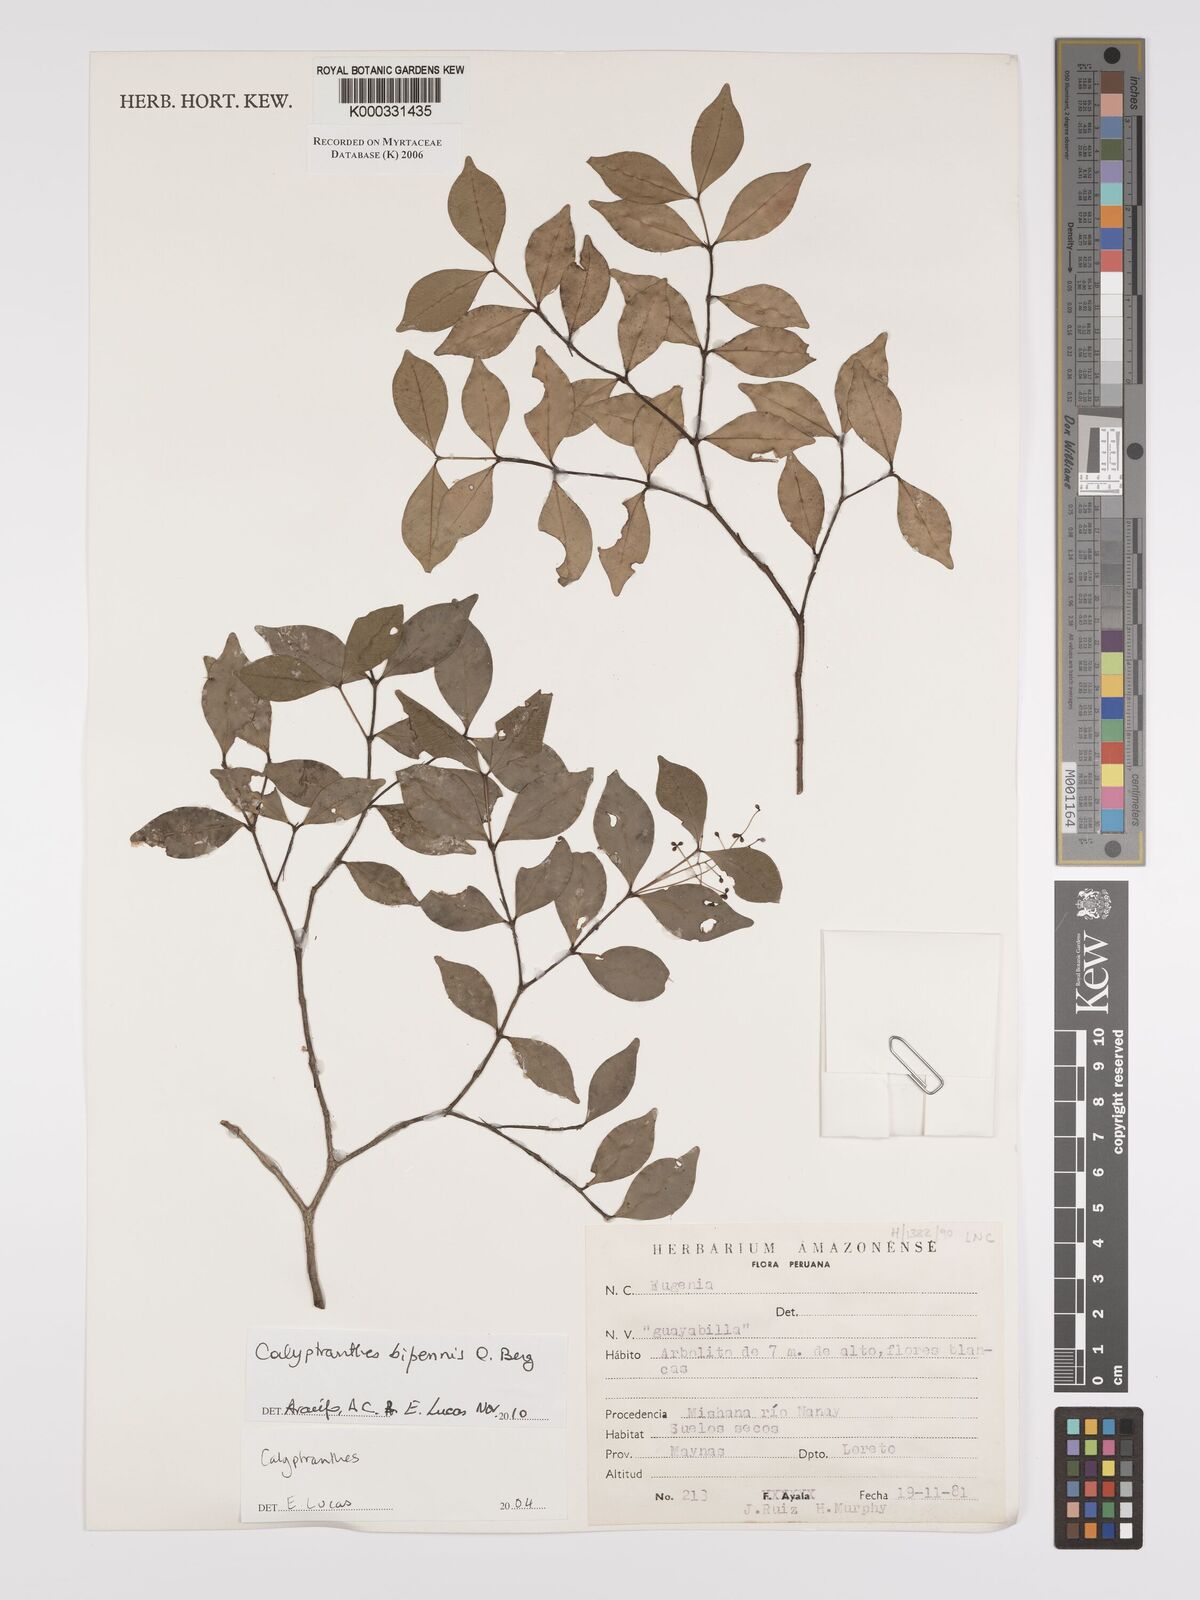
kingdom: Plantae
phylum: Tracheophyta
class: Magnoliopsida
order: Myrtales
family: Myrtaceae
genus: Calyptranthes
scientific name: Calyptranthes
